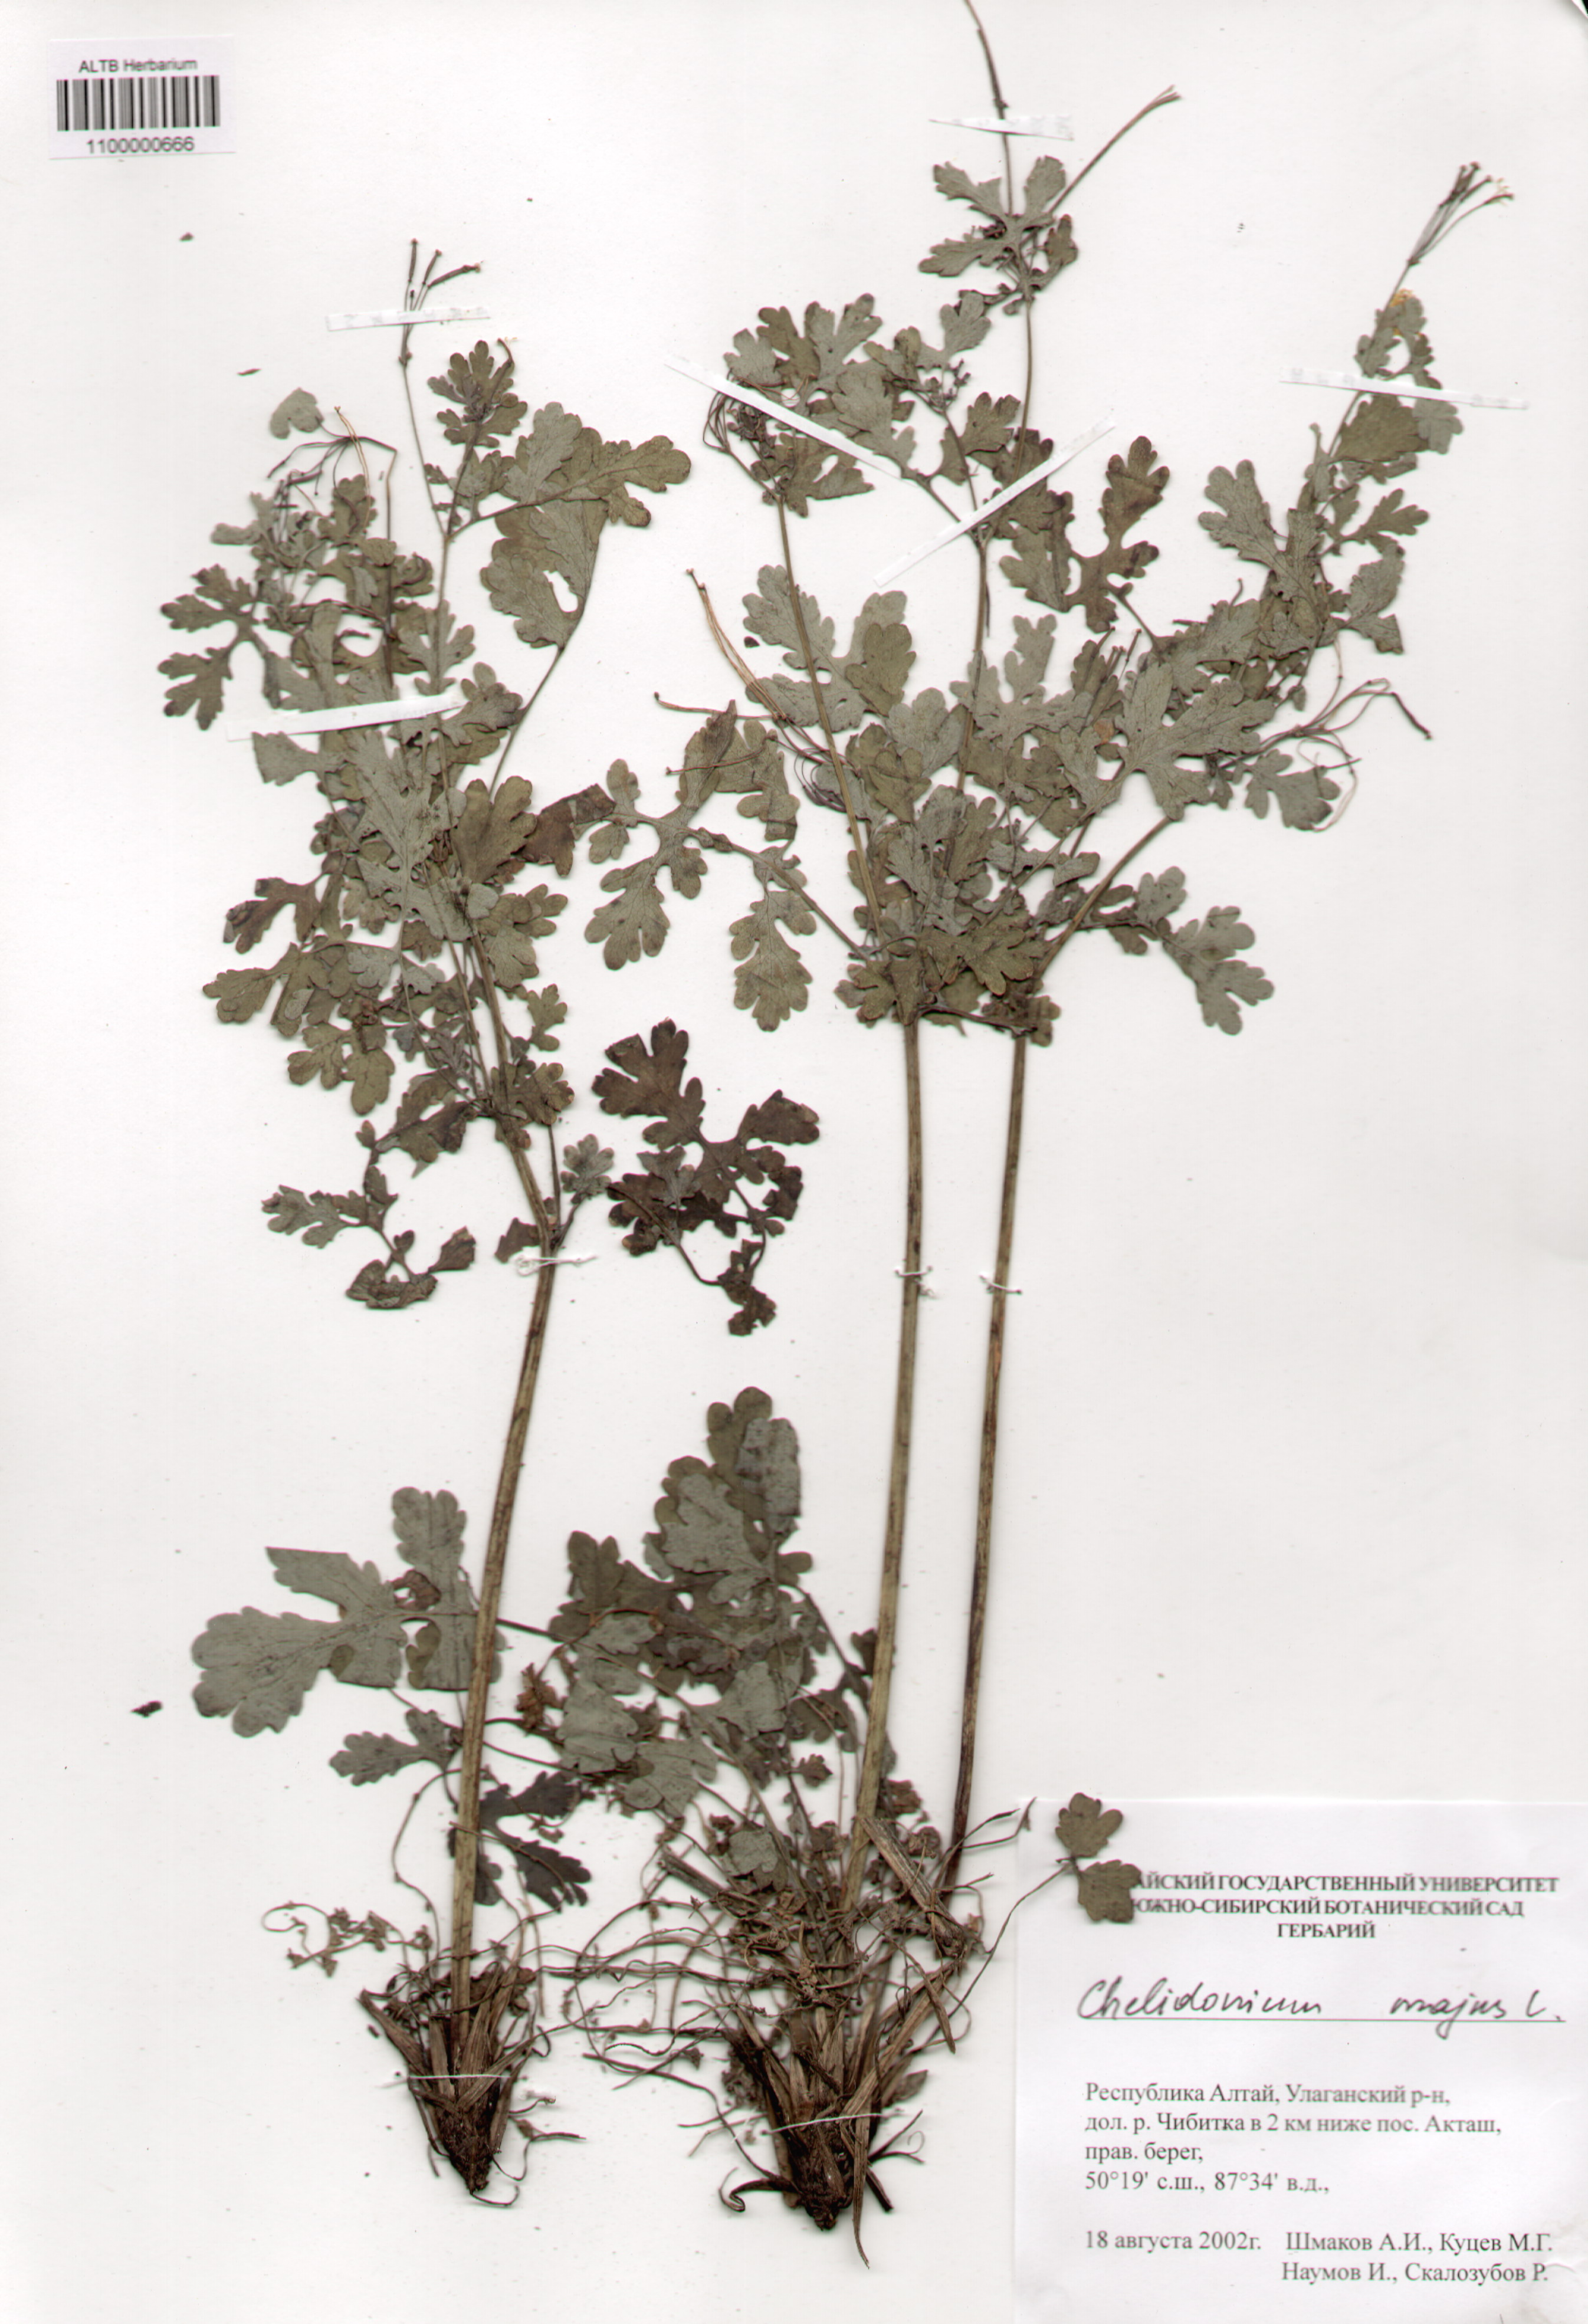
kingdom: Plantae
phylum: Tracheophyta
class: Magnoliopsida
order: Ranunculales
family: Papaveraceae
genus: Chelidonium
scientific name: Chelidonium majus
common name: Greater celandine
